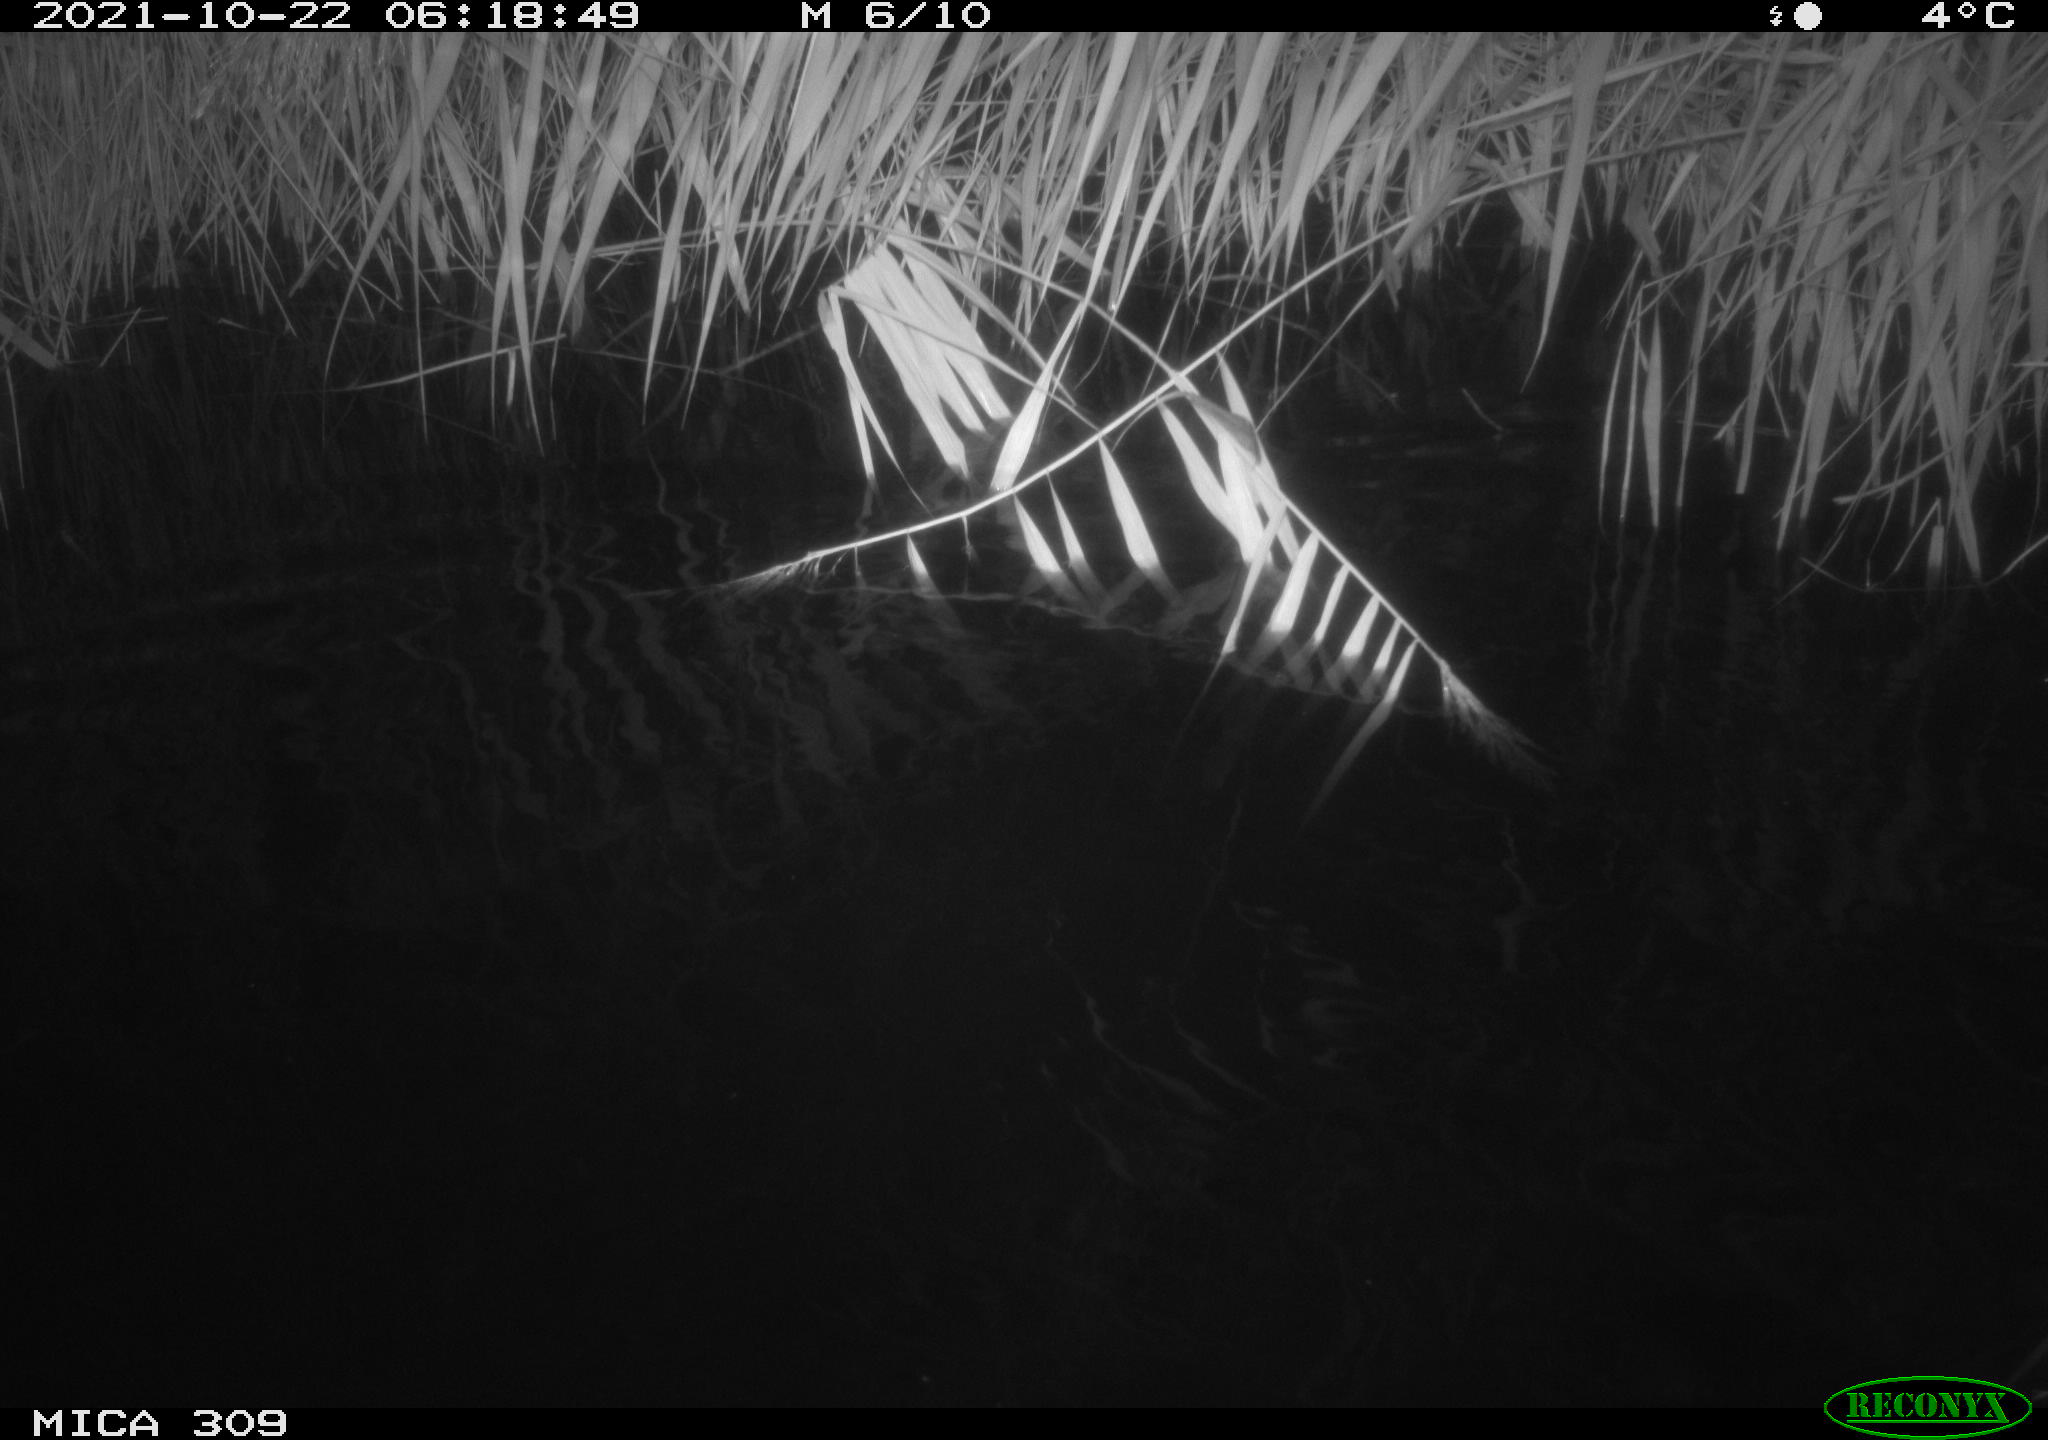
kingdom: Animalia
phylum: Chordata
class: Mammalia
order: Rodentia
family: Muridae
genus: Rattus
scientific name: Rattus norvegicus
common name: Brown rat
